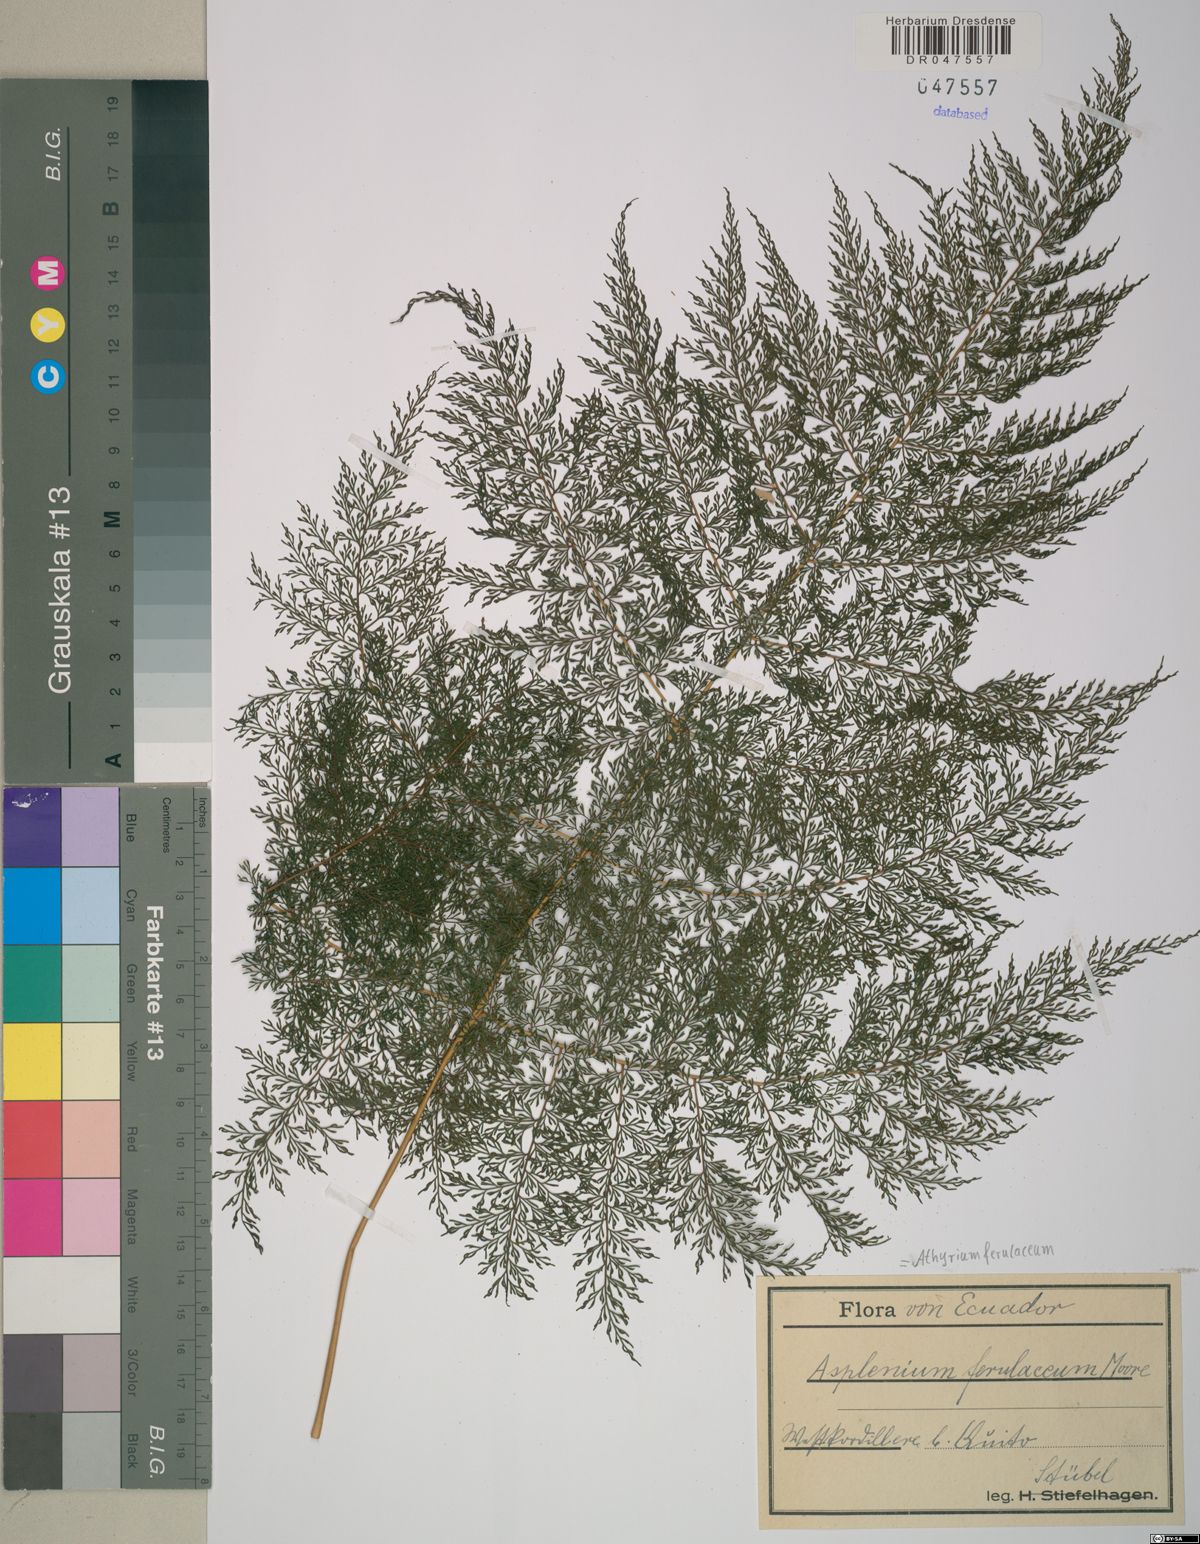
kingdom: Plantae
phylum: Tracheophyta
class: Polypodiopsida
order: Polypodiales
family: Athyriaceae
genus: Athyrium
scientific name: Athyrium ferulaceum
